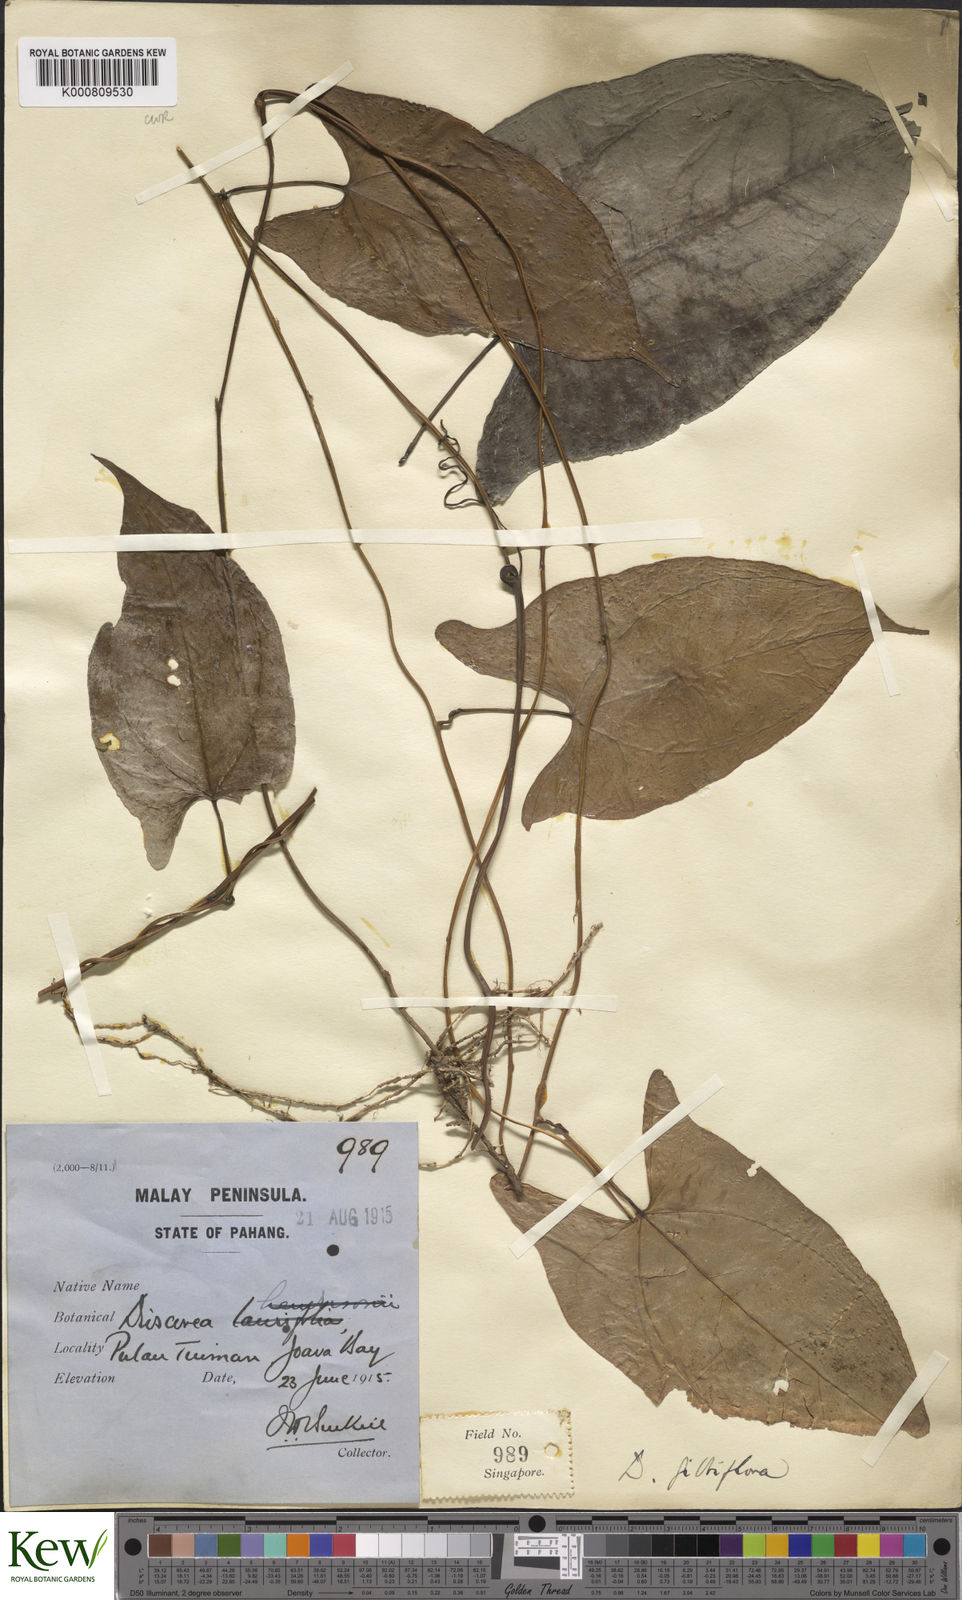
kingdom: Plantae
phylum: Tracheophyta
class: Liliopsida
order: Dioscoreales
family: Dioscoreaceae
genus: Dioscorea
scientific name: Dioscorea filiformis
